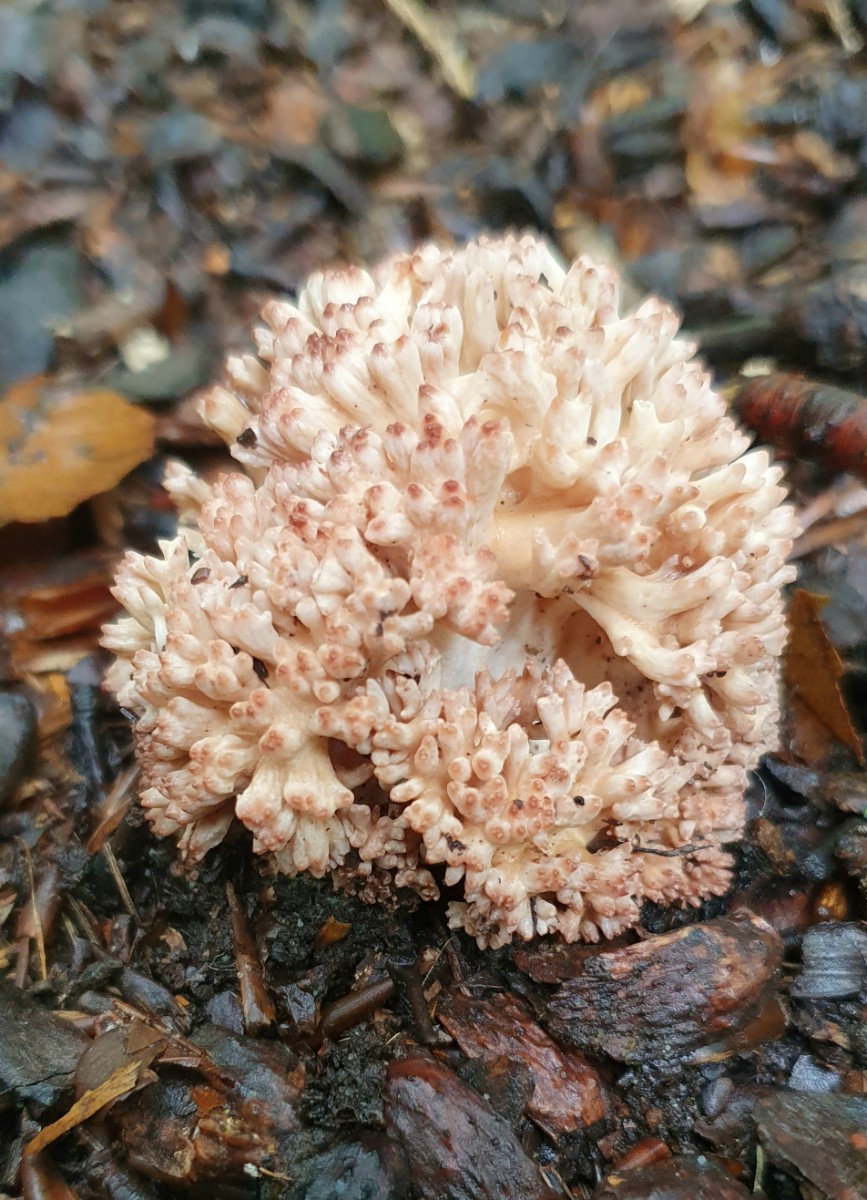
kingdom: Fungi
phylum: Basidiomycota
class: Agaricomycetes
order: Gomphales
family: Gomphaceae
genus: Ramaria
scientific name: Ramaria botrytis
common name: drue-koralsvamp
